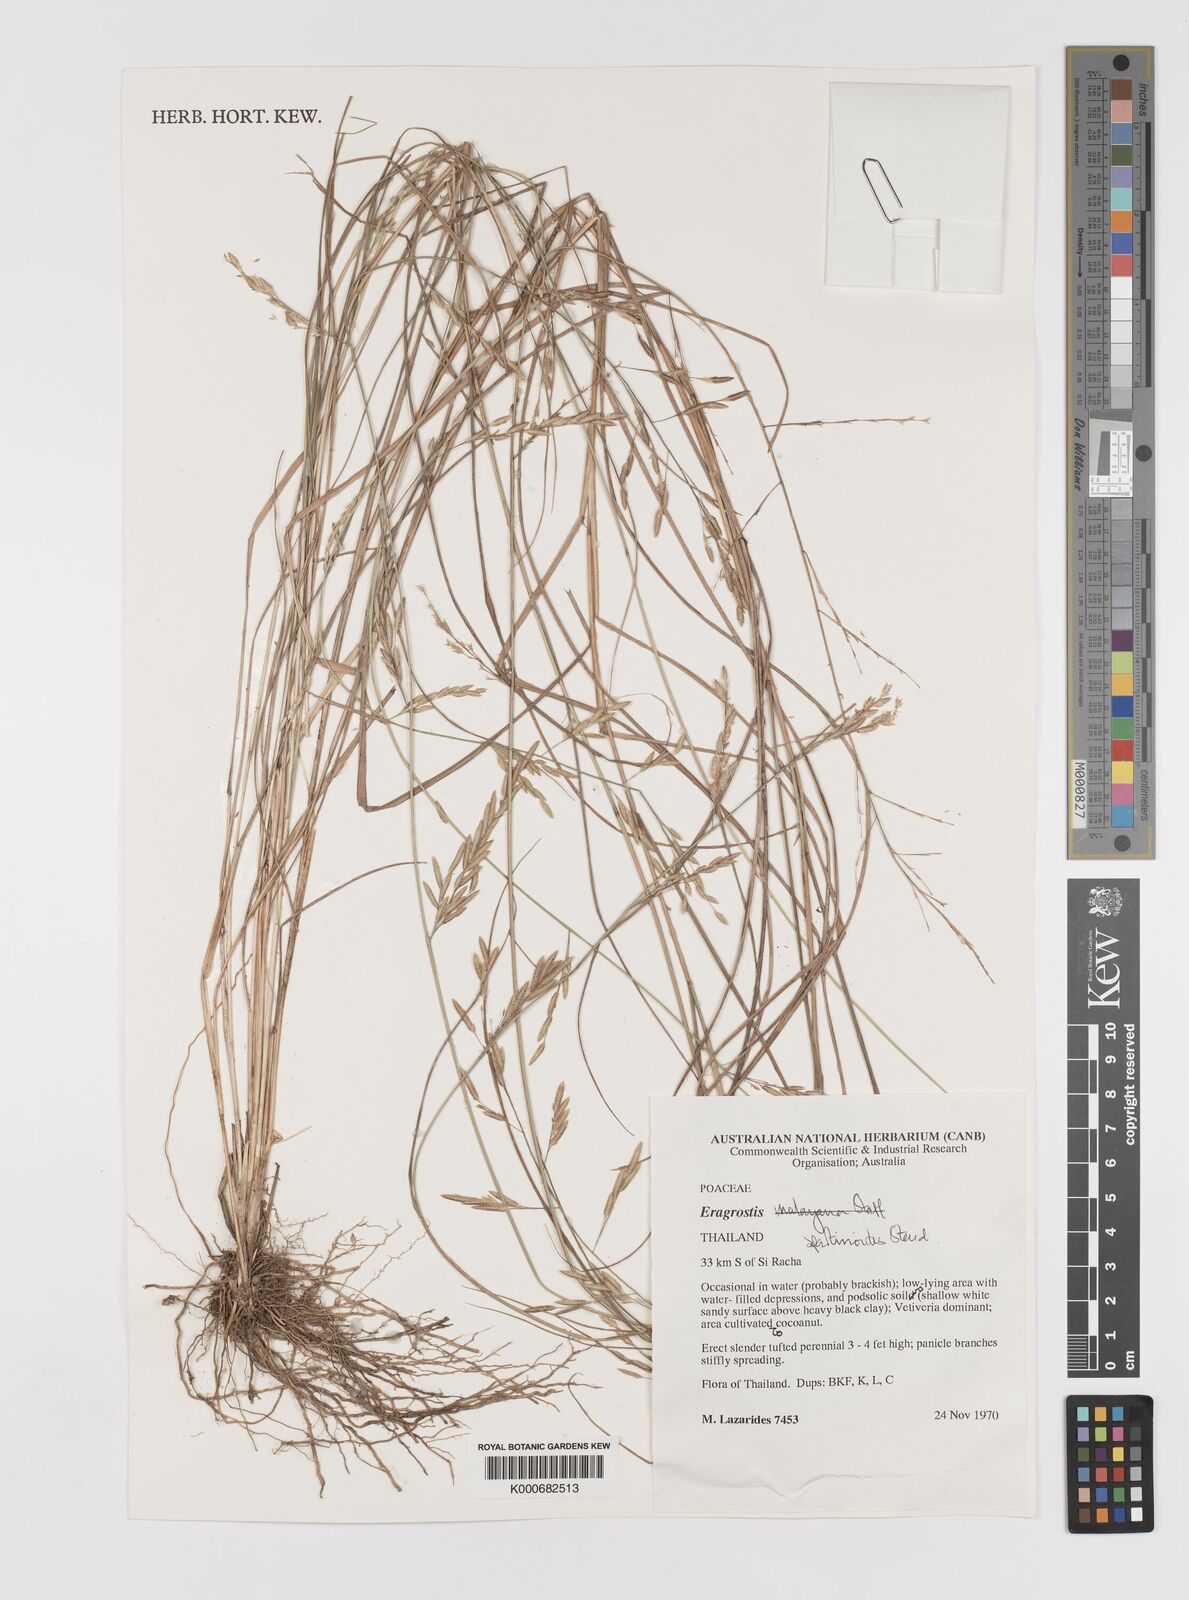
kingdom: Plantae
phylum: Tracheophyta
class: Liliopsida
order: Poales
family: Poaceae
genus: Eragrostis
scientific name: Eragrostis brownii
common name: Lovegrass
